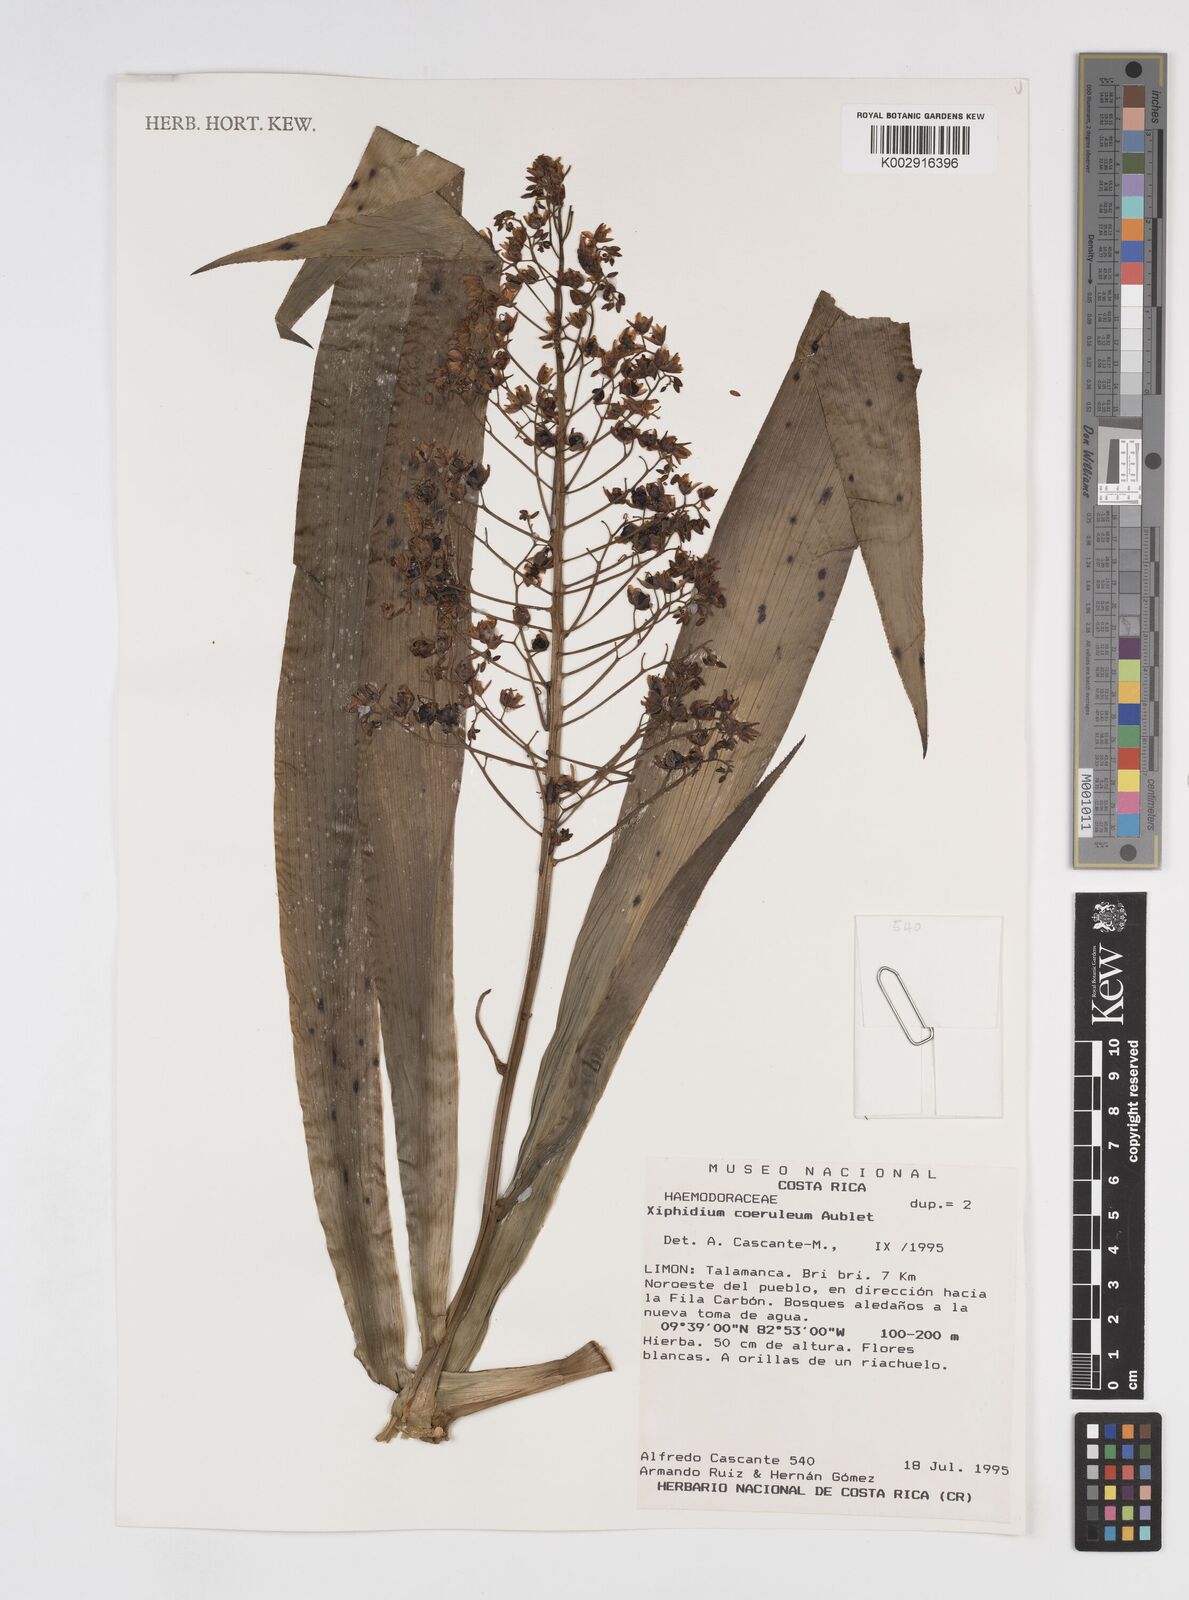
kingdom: Plantae
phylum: Tracheophyta
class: Liliopsida
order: Commelinales
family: Haemodoraceae
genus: Xiphidium
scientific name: Xiphidium caeruleum
